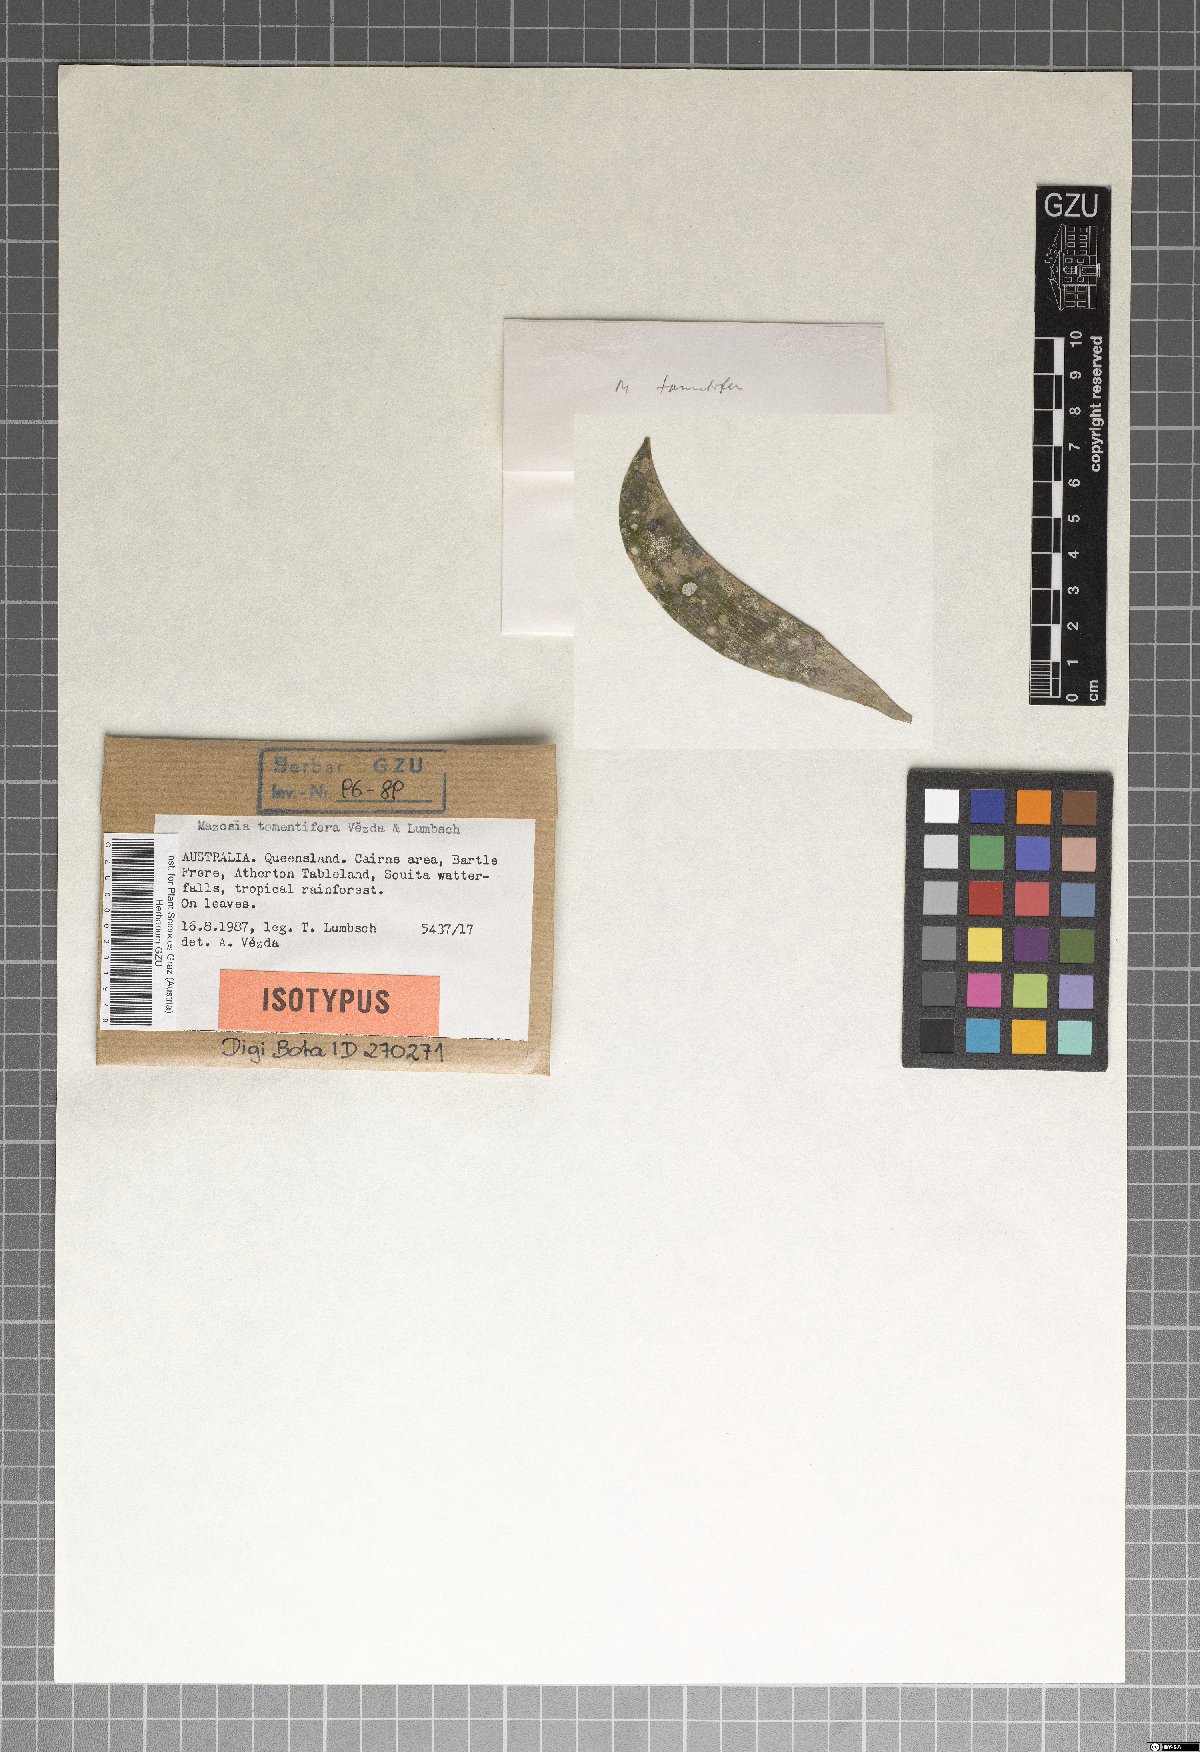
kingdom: Fungi
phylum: Ascomycota
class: Arthoniomycetes
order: Arthoniales
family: Roccellaceae
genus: Mazosia
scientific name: Mazosia tomentifera
